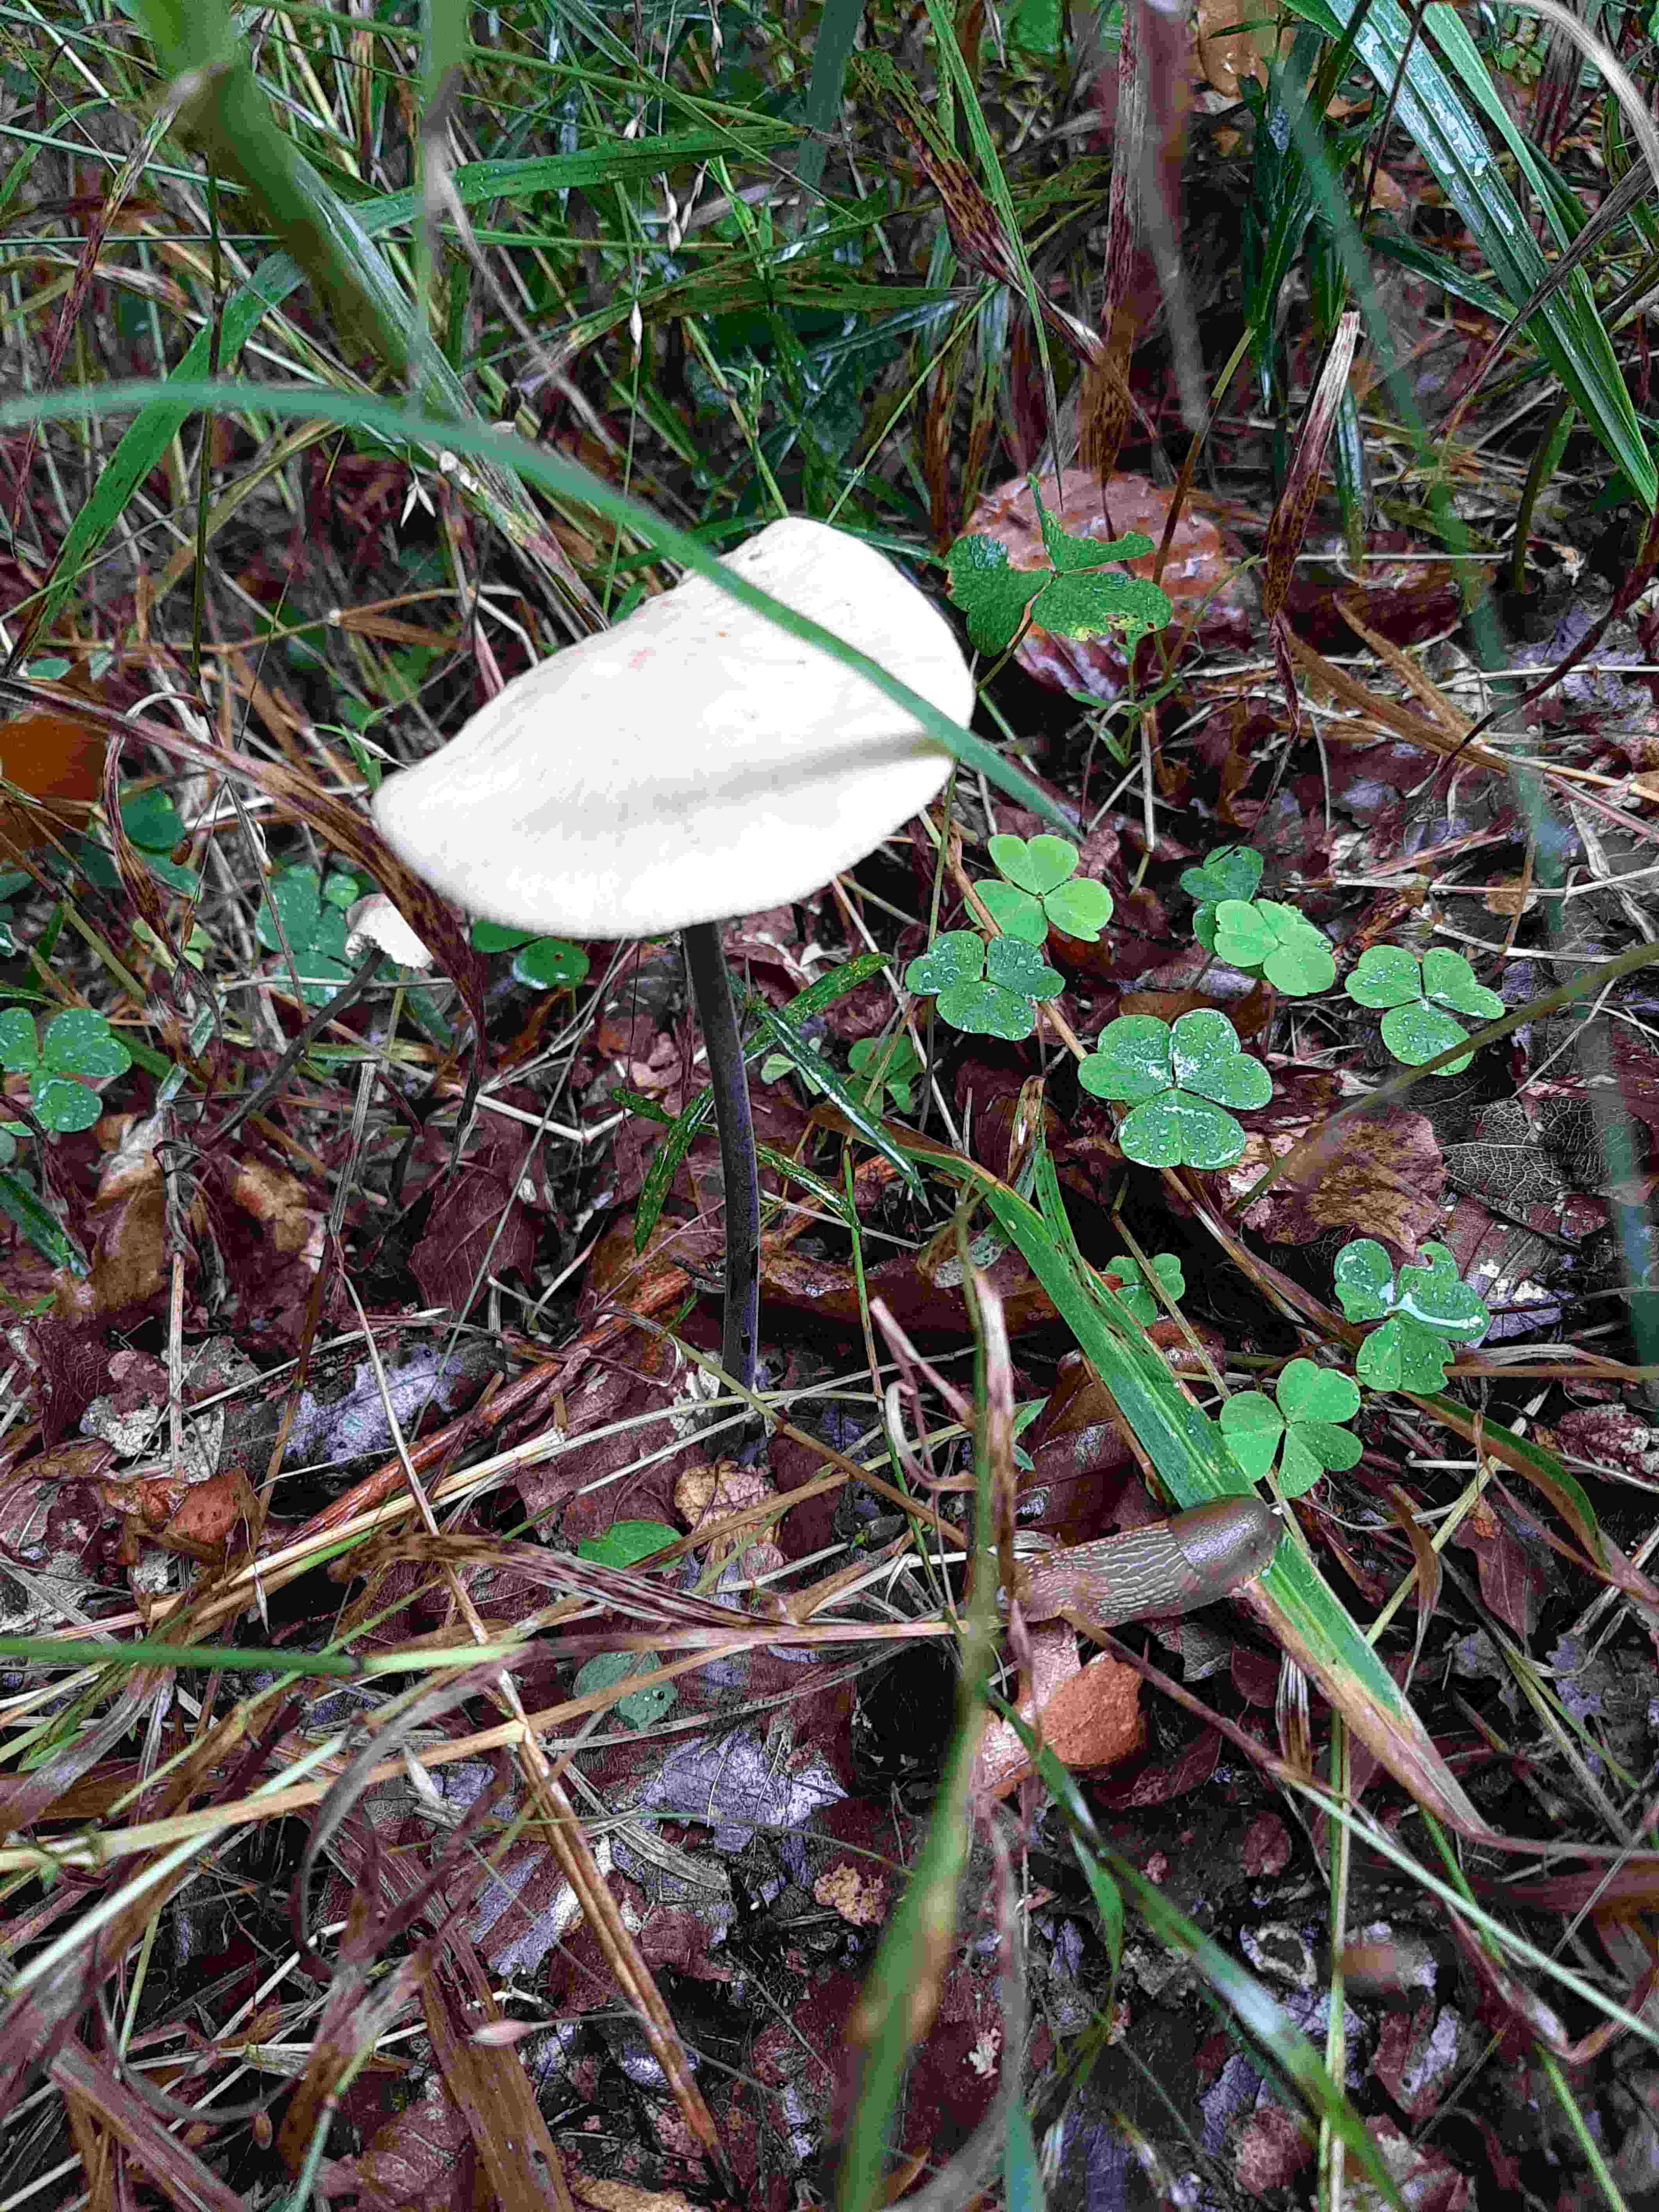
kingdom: Fungi
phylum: Basidiomycota
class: Agaricomycetes
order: Agaricales
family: Omphalotaceae
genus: Mycetinis
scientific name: Mycetinis alliaceus
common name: stor løghat
